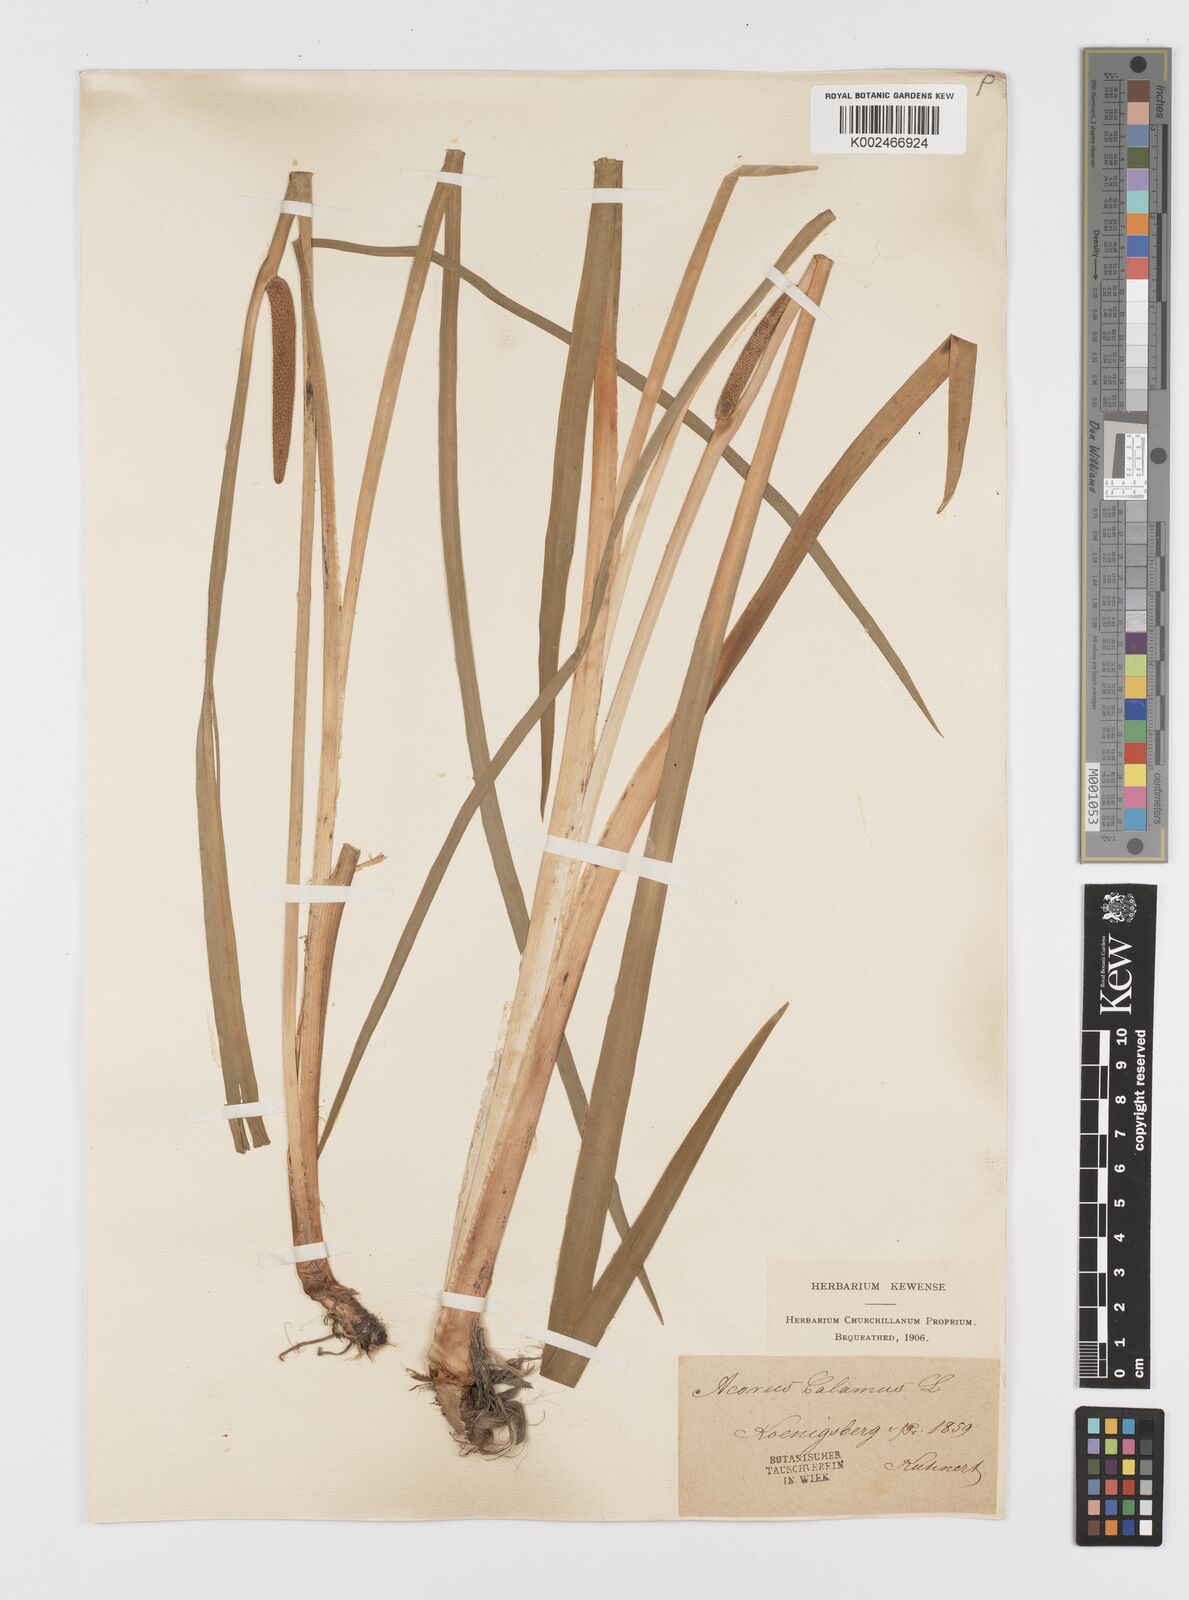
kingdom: Plantae
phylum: Tracheophyta
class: Liliopsida
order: Acorales
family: Acoraceae
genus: Acorus
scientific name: Acorus calamus
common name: Sweet-flag
